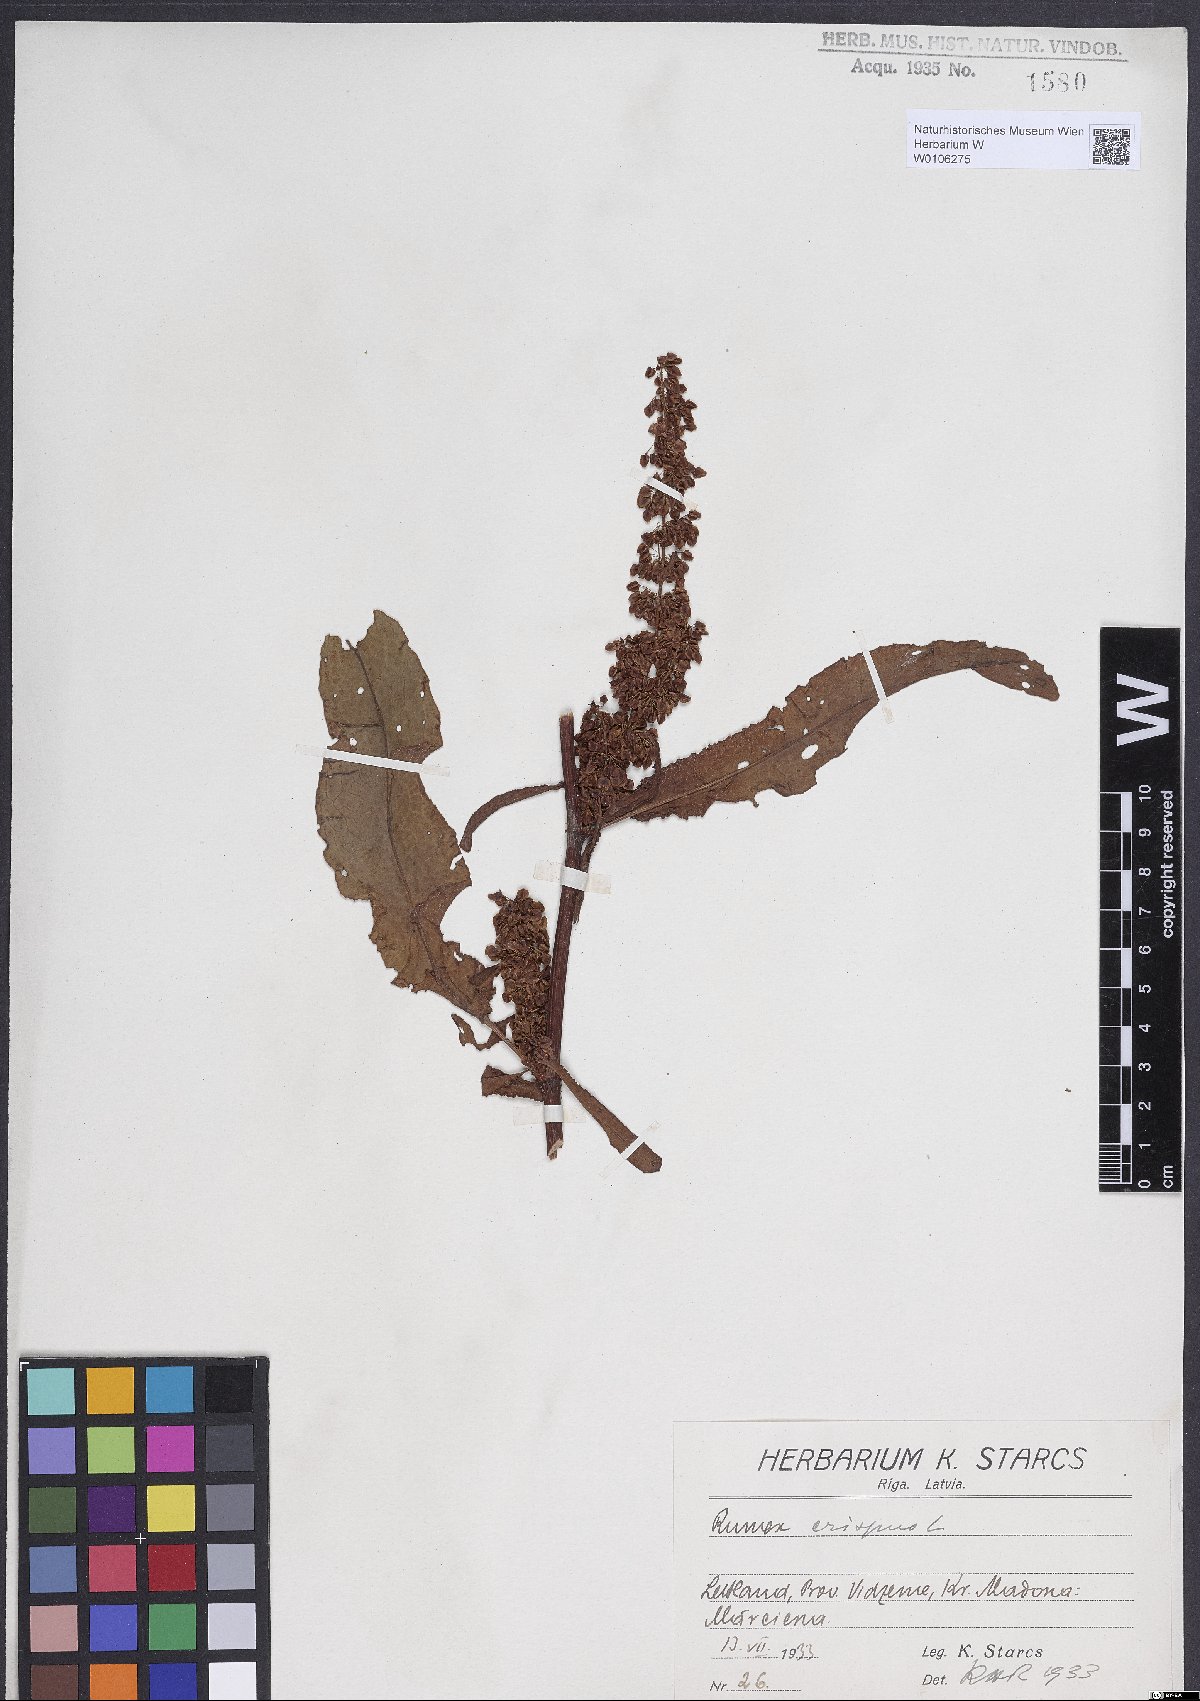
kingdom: Plantae
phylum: Tracheophyta
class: Magnoliopsida
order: Caryophyllales
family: Polygonaceae
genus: Rumex
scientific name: Rumex crispus
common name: Curled dock
